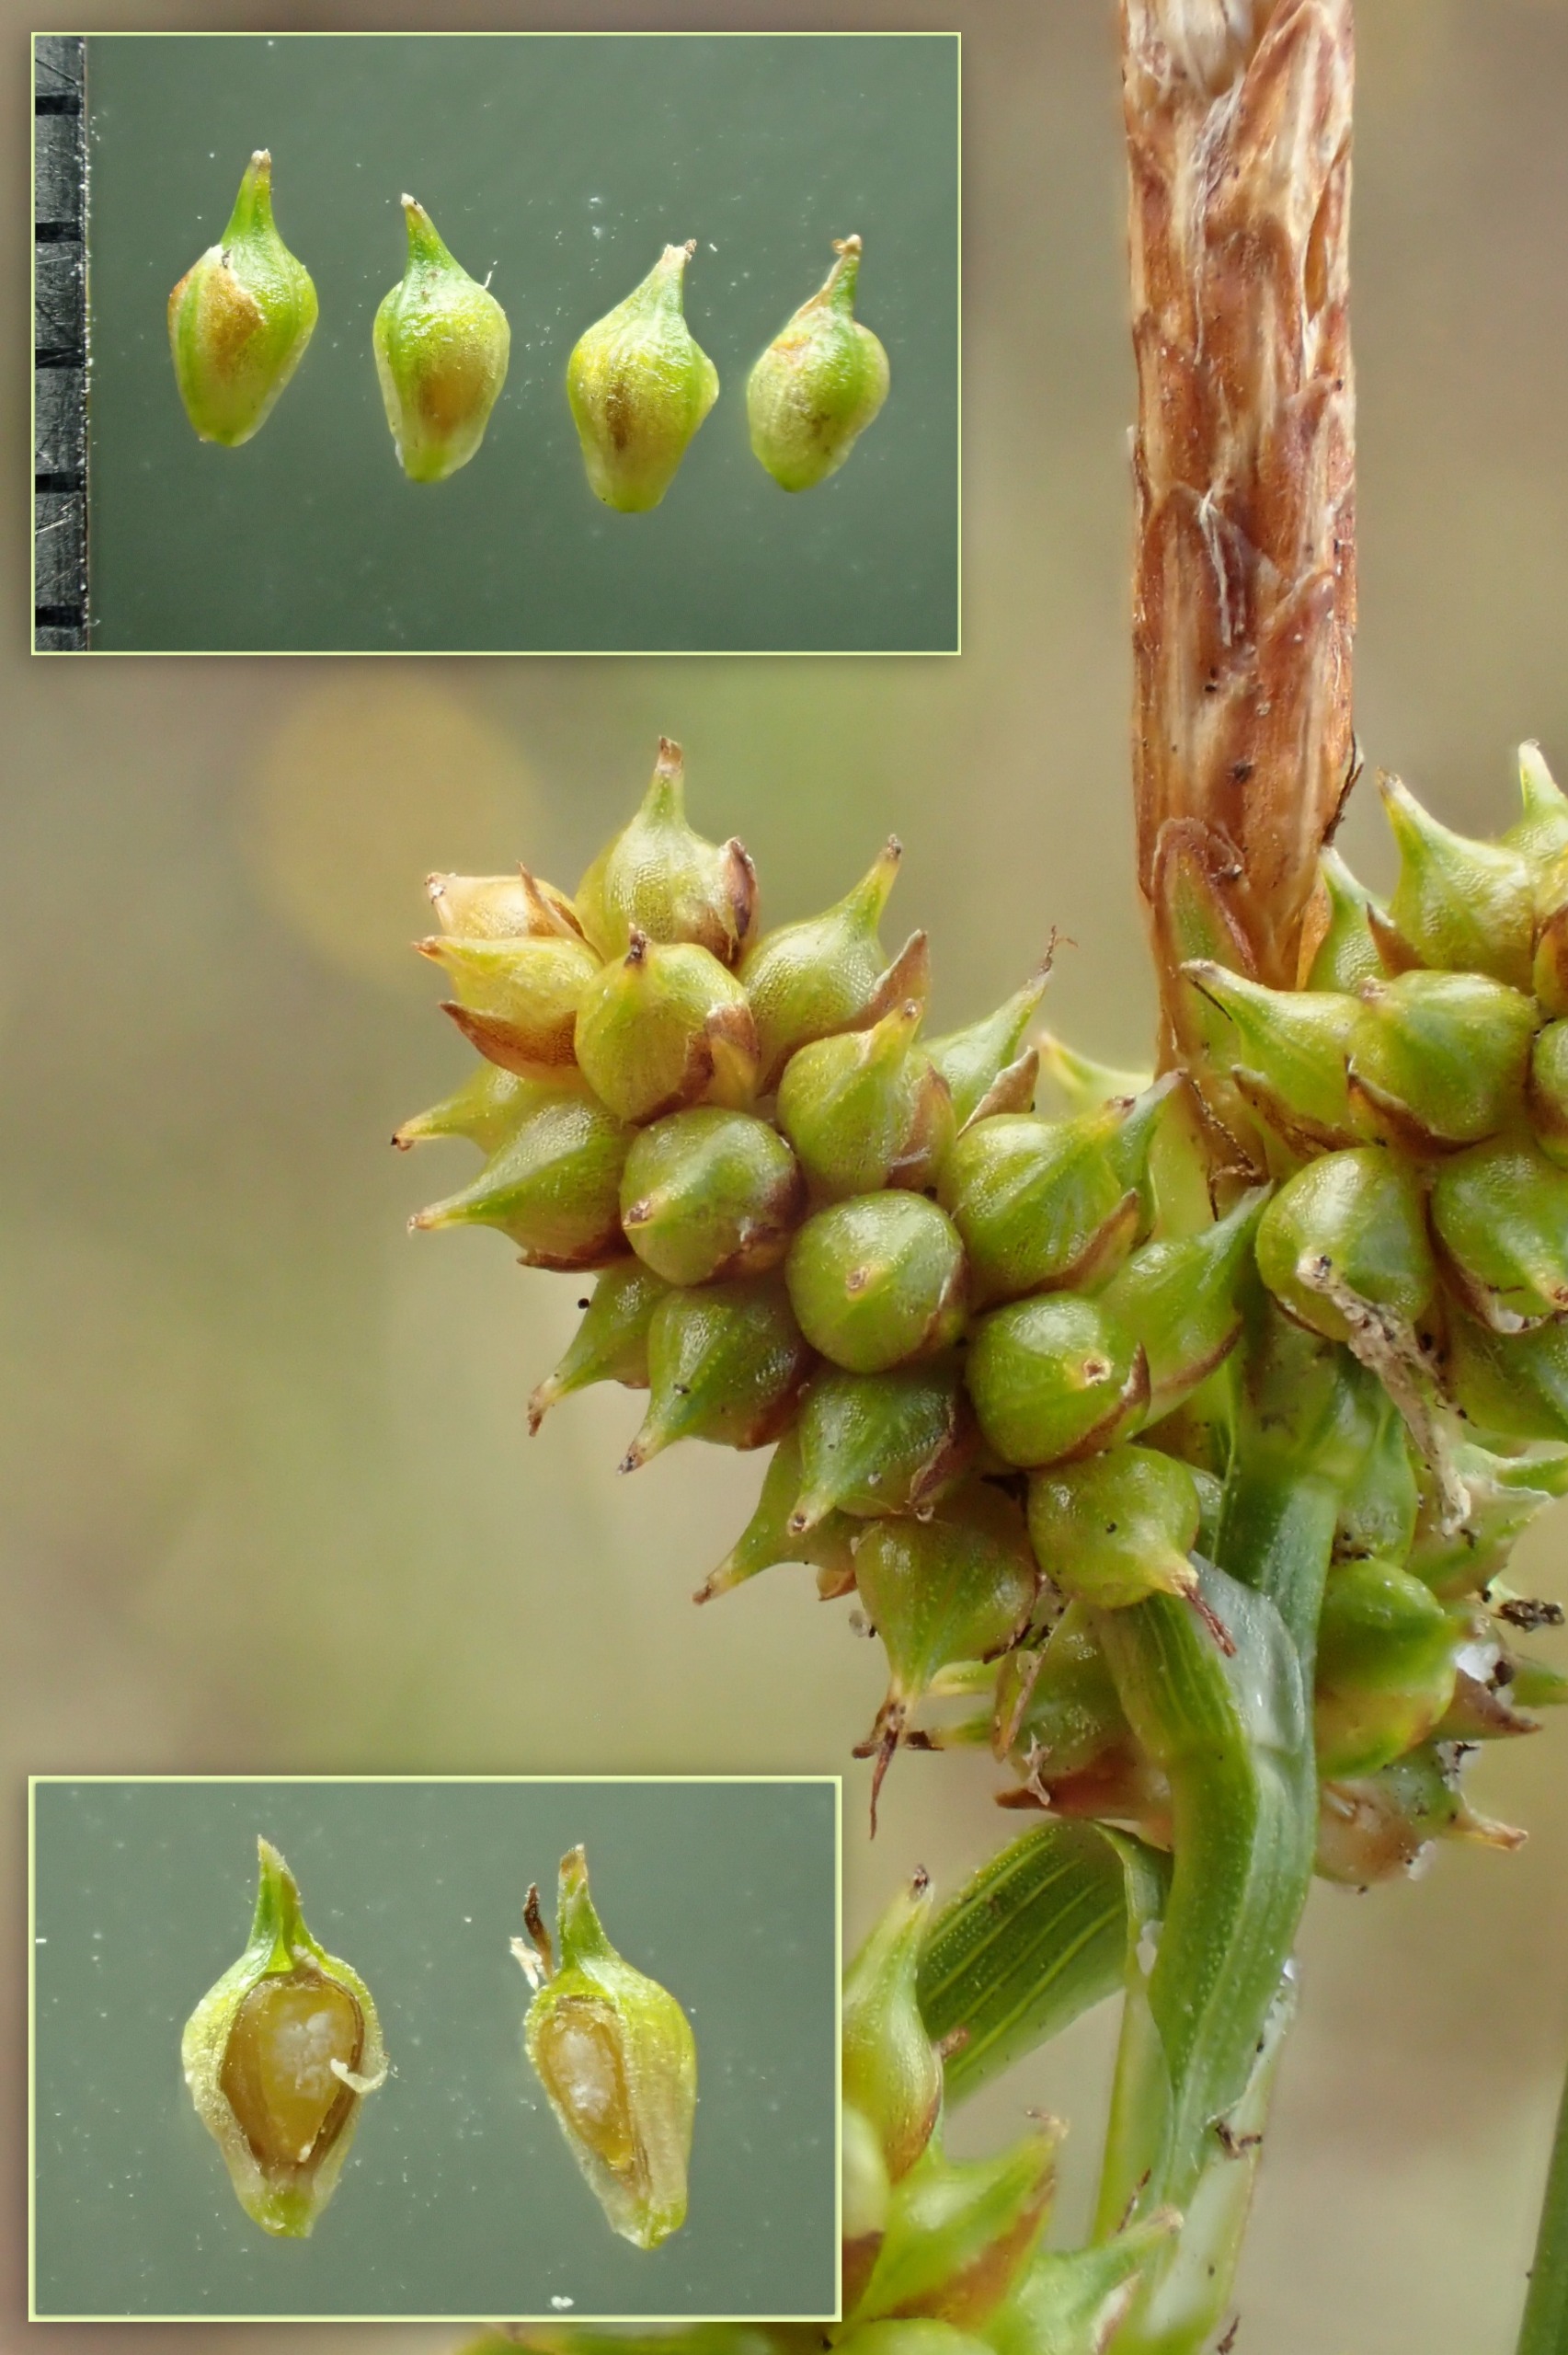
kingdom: Plantae
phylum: Tracheophyta
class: Liliopsida
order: Poales
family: Cyperaceae
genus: Carex
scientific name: Carex oederi
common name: Dværg-star
